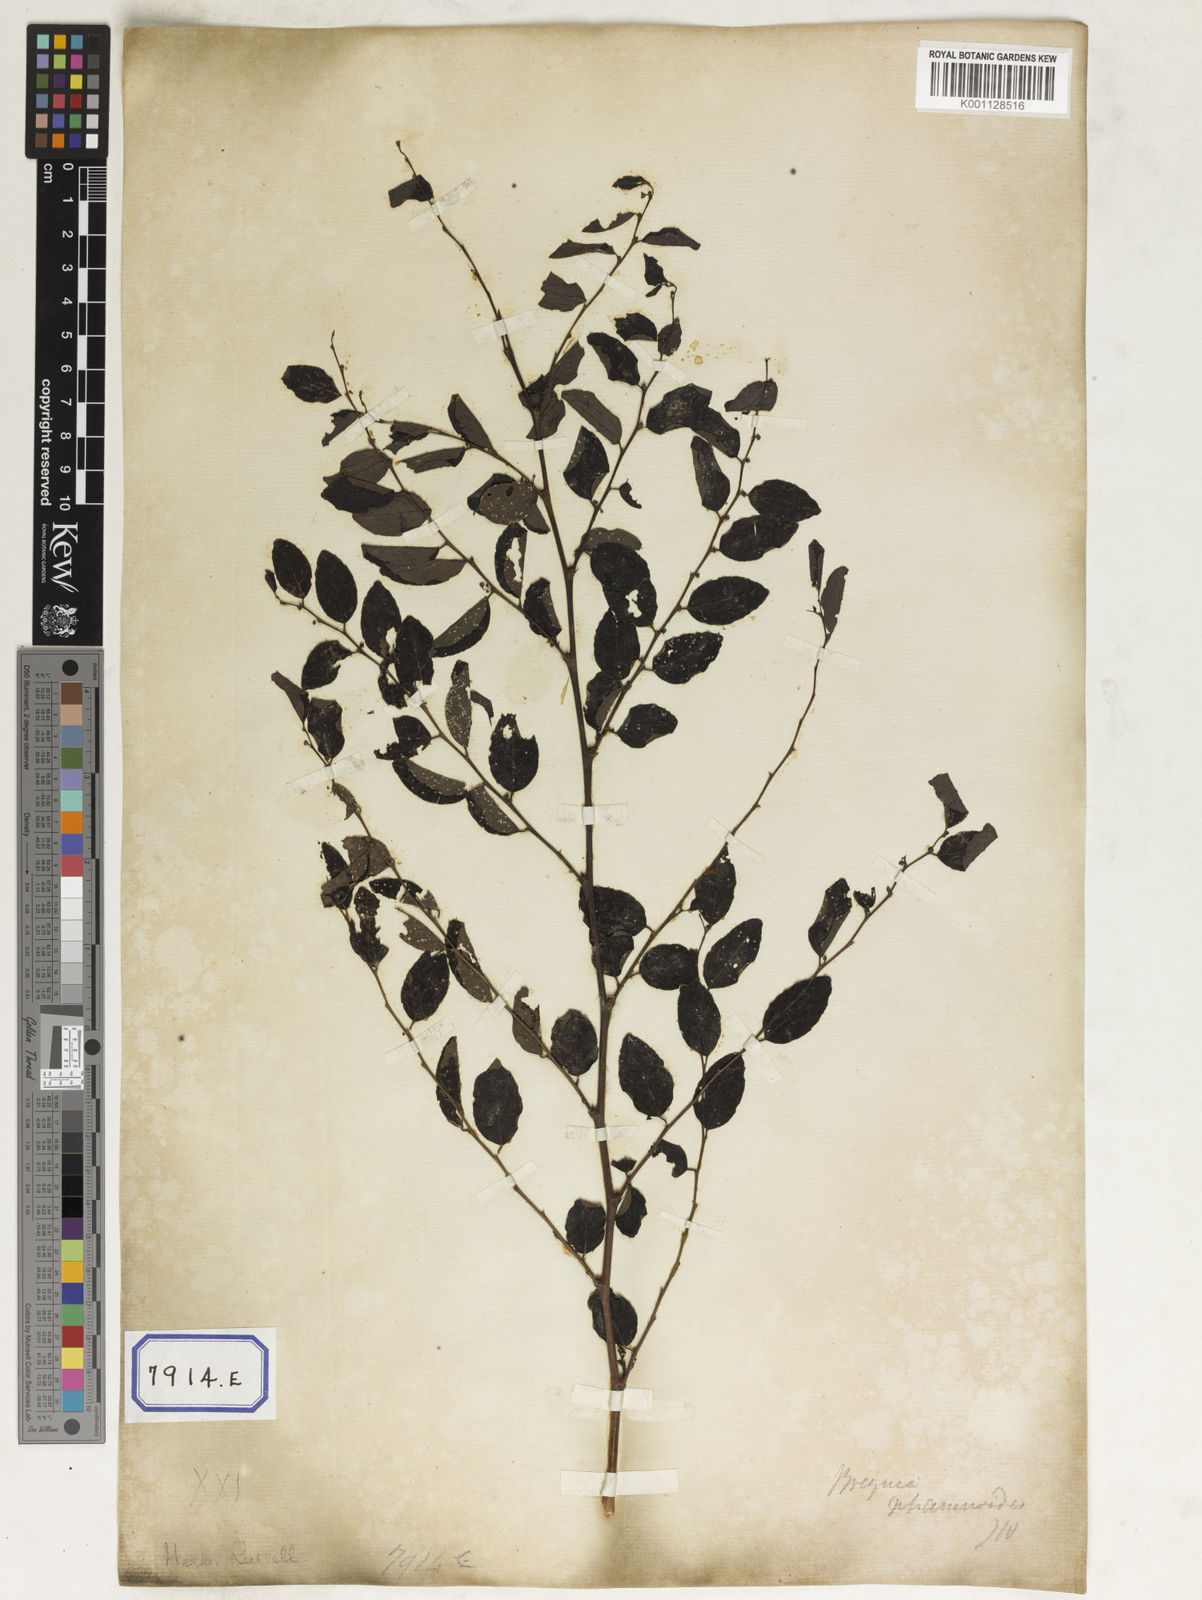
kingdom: Plantae
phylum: Tracheophyta
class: Magnoliopsida
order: Malpighiales
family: Euphorbiaceae
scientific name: Euphorbiaceae
